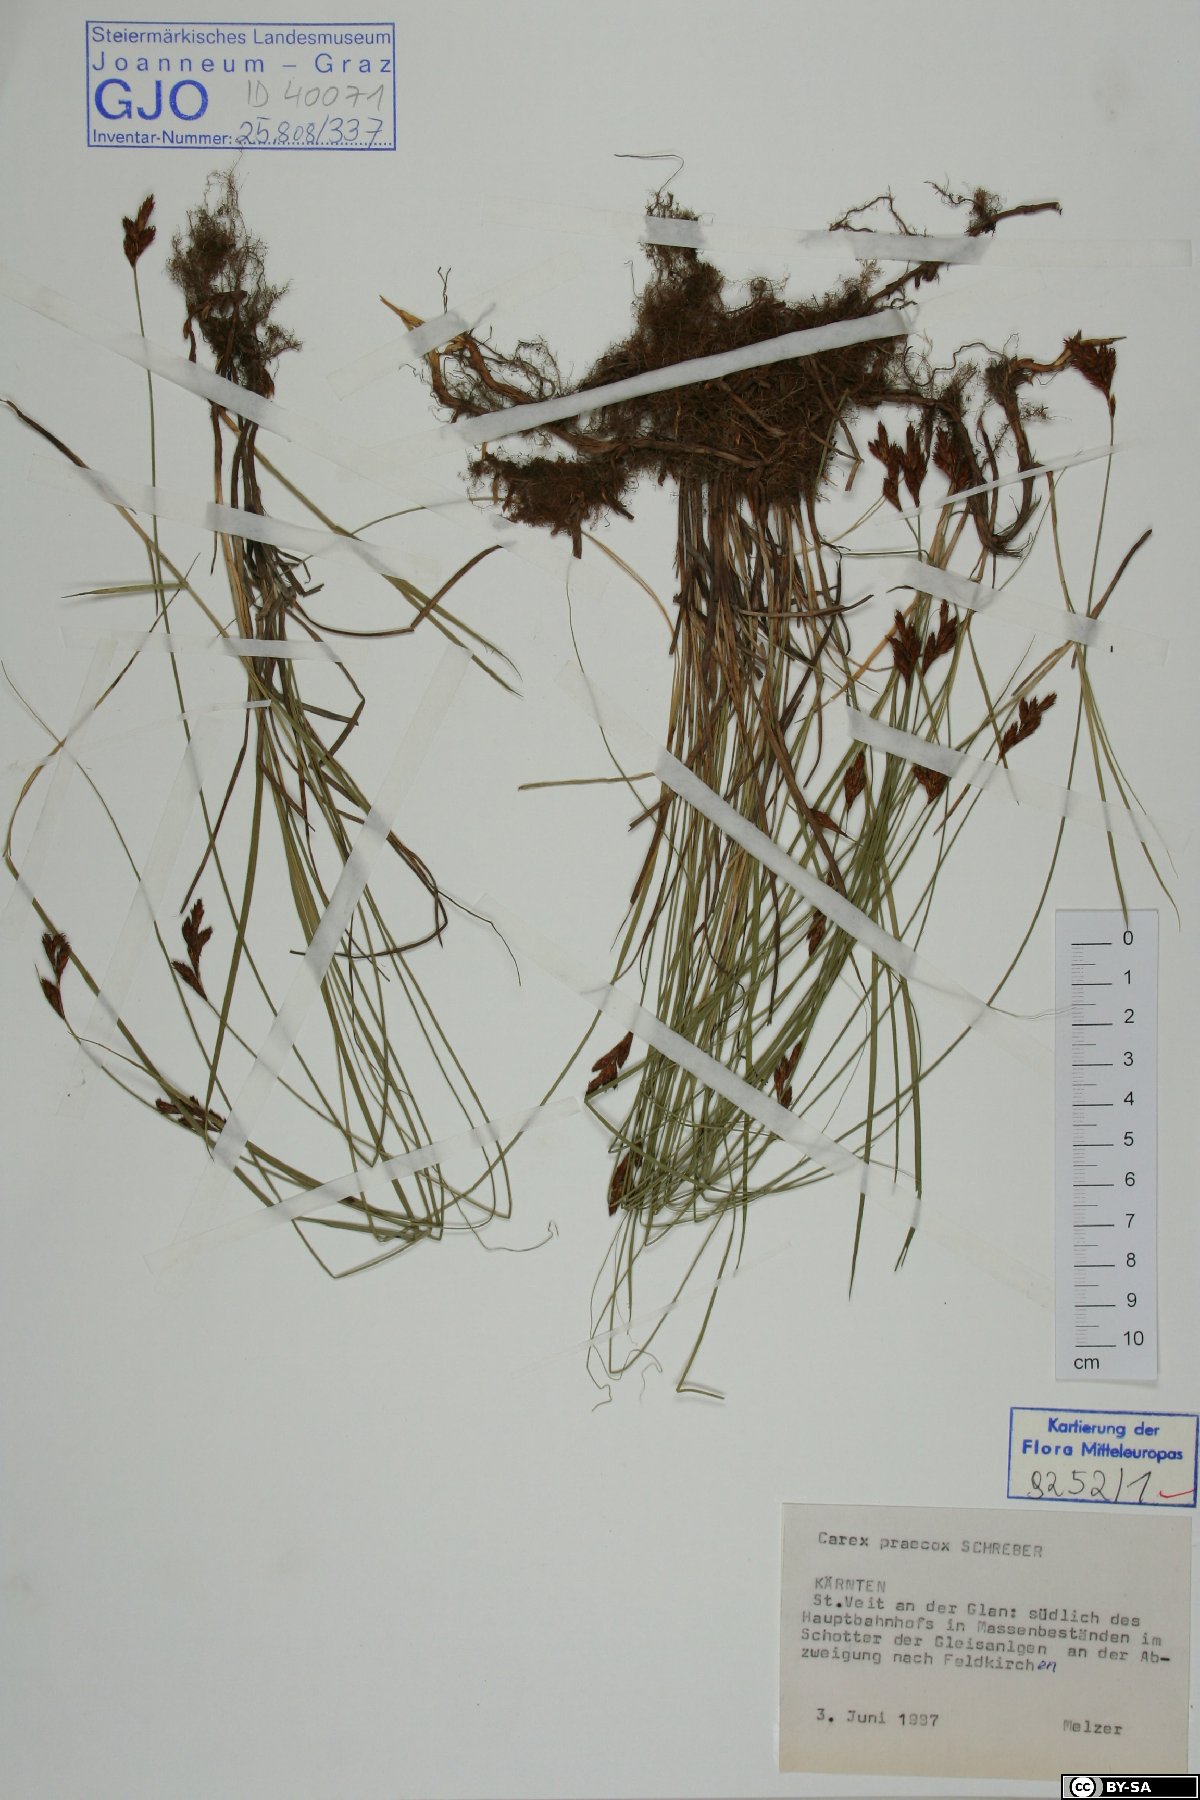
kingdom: Plantae
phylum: Tracheophyta
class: Liliopsida
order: Poales
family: Cyperaceae
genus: Carex
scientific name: Carex praecox
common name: Early sedge
